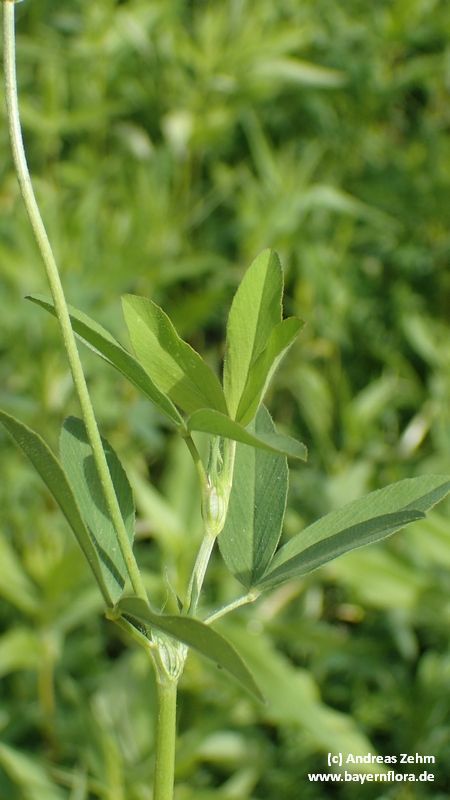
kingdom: Plantae
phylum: Tracheophyta
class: Magnoliopsida
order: Fabales
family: Fabaceae
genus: Trifolium
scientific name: Trifolium alexandrinum
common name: Egyptian clover
